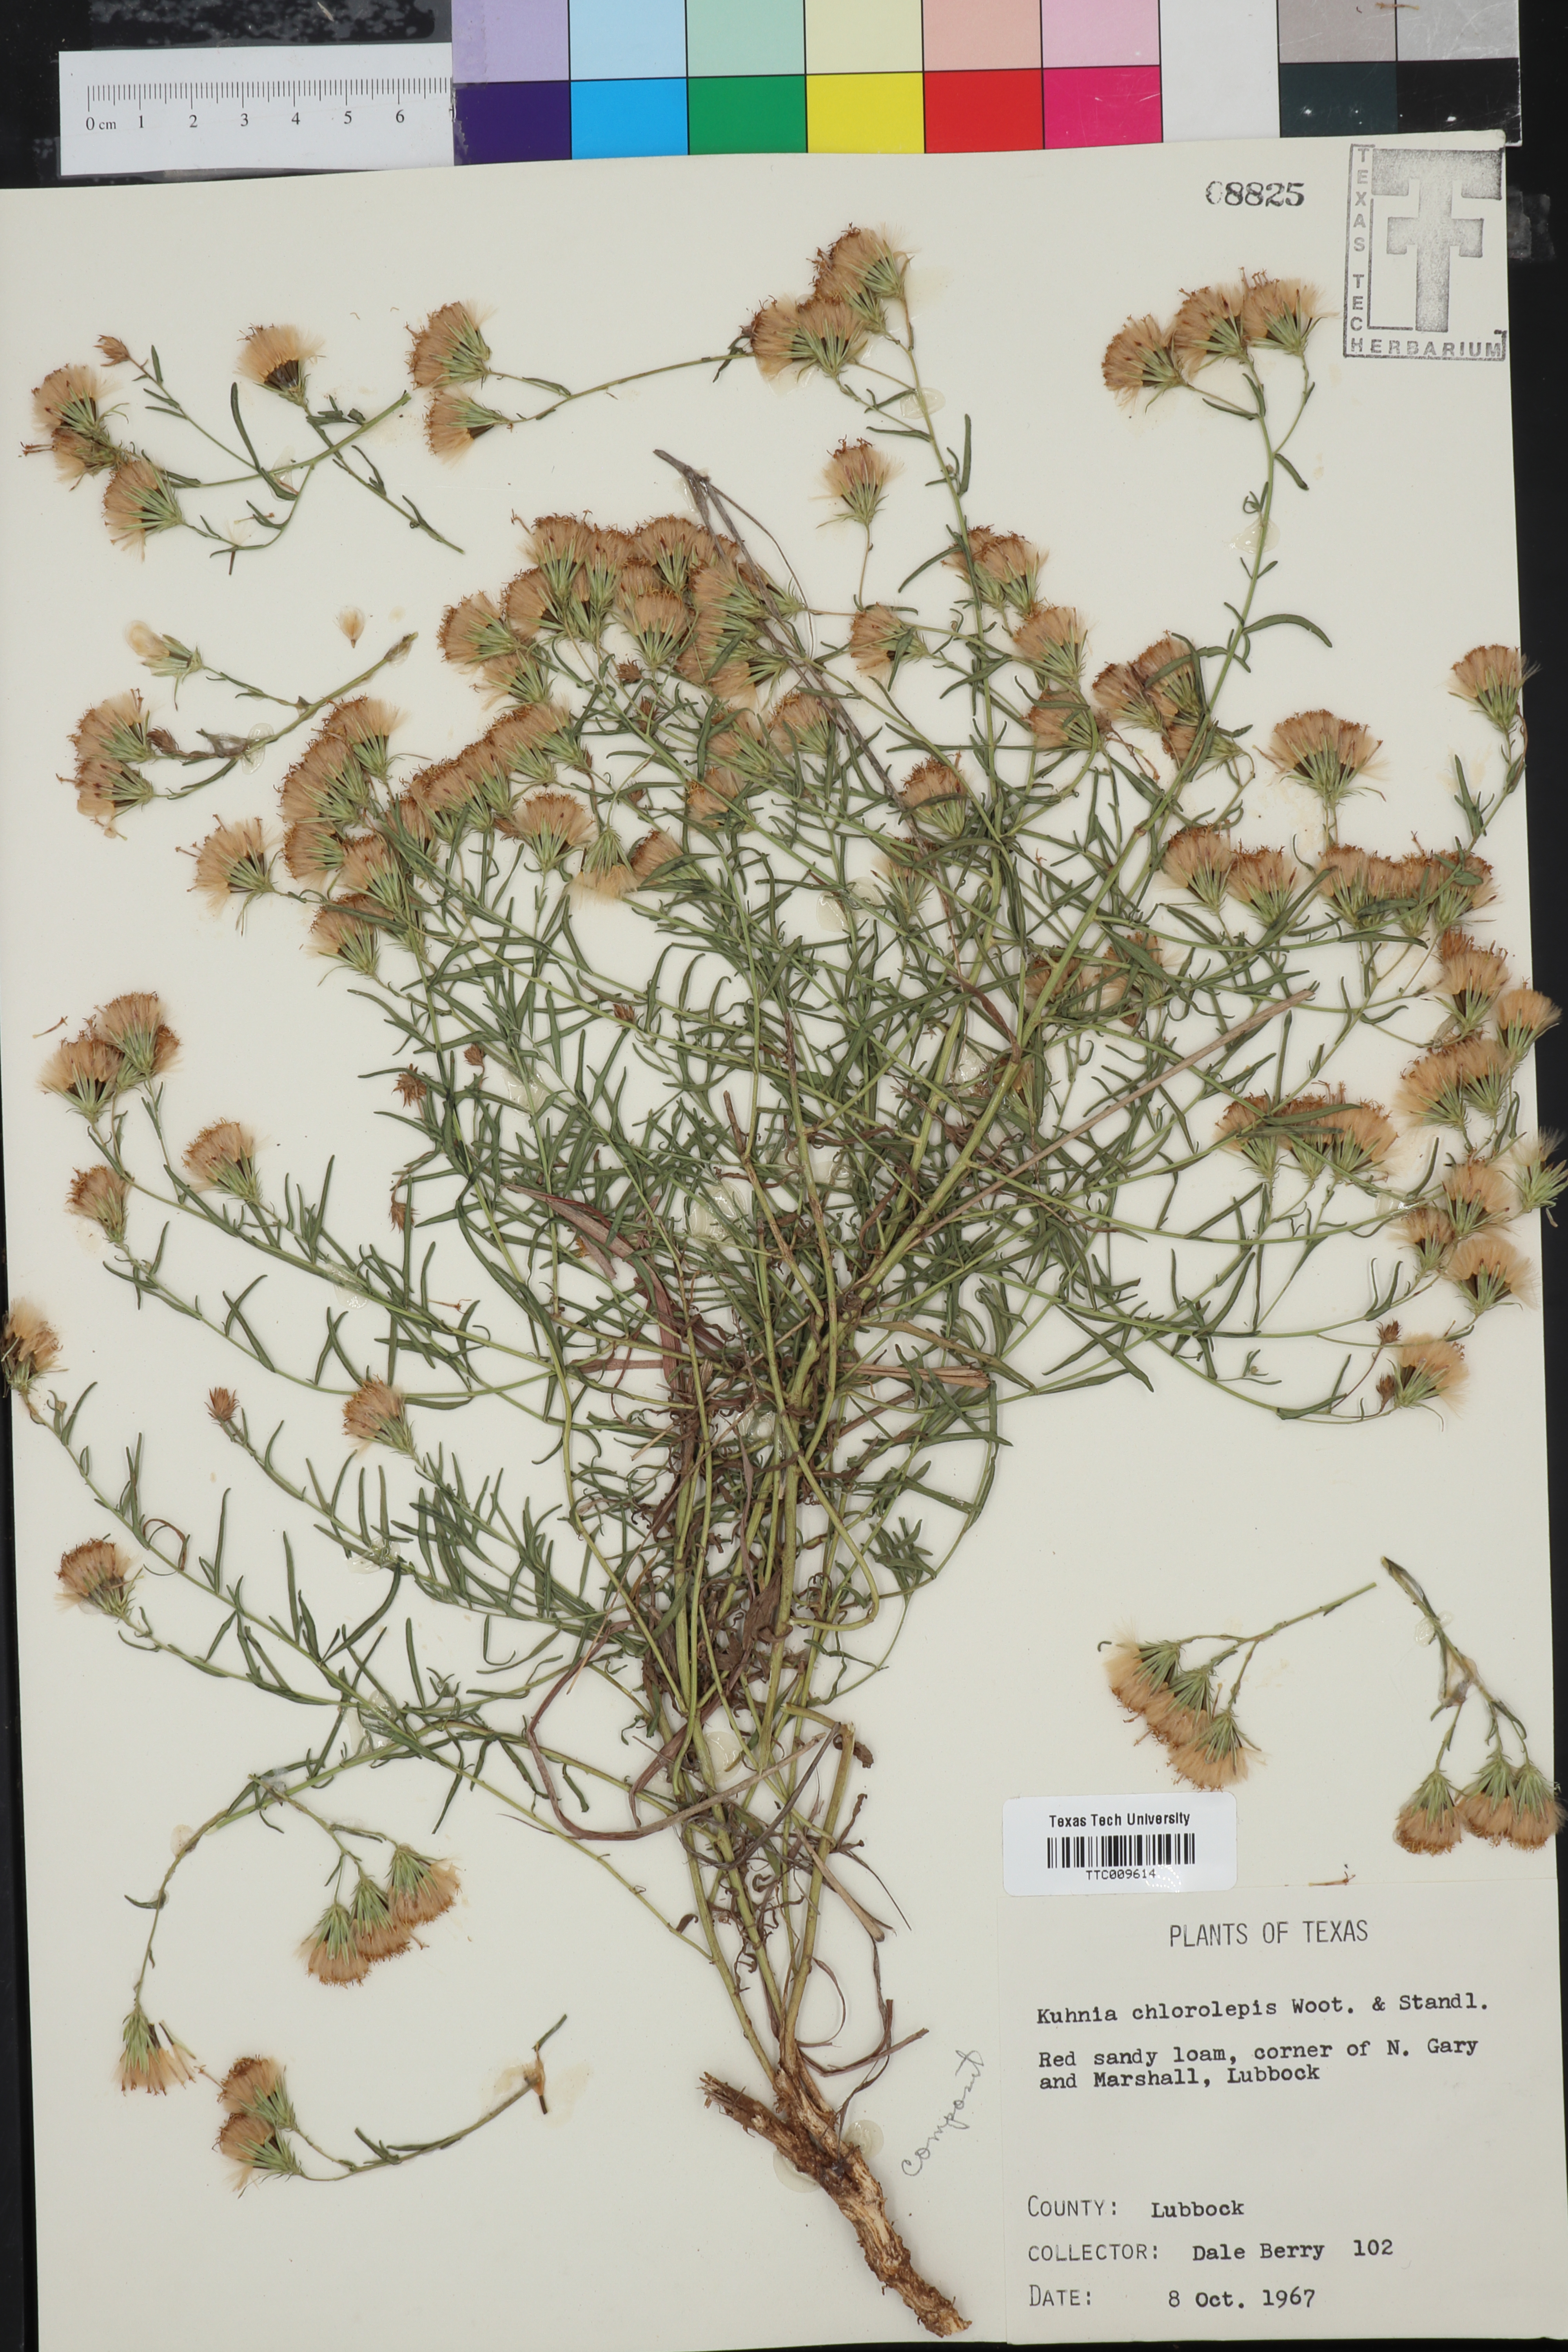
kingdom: Plantae
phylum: Tracheophyta
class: Magnoliopsida
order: Asterales
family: Asteraceae
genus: Brickellia
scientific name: Brickellia leptophylla
